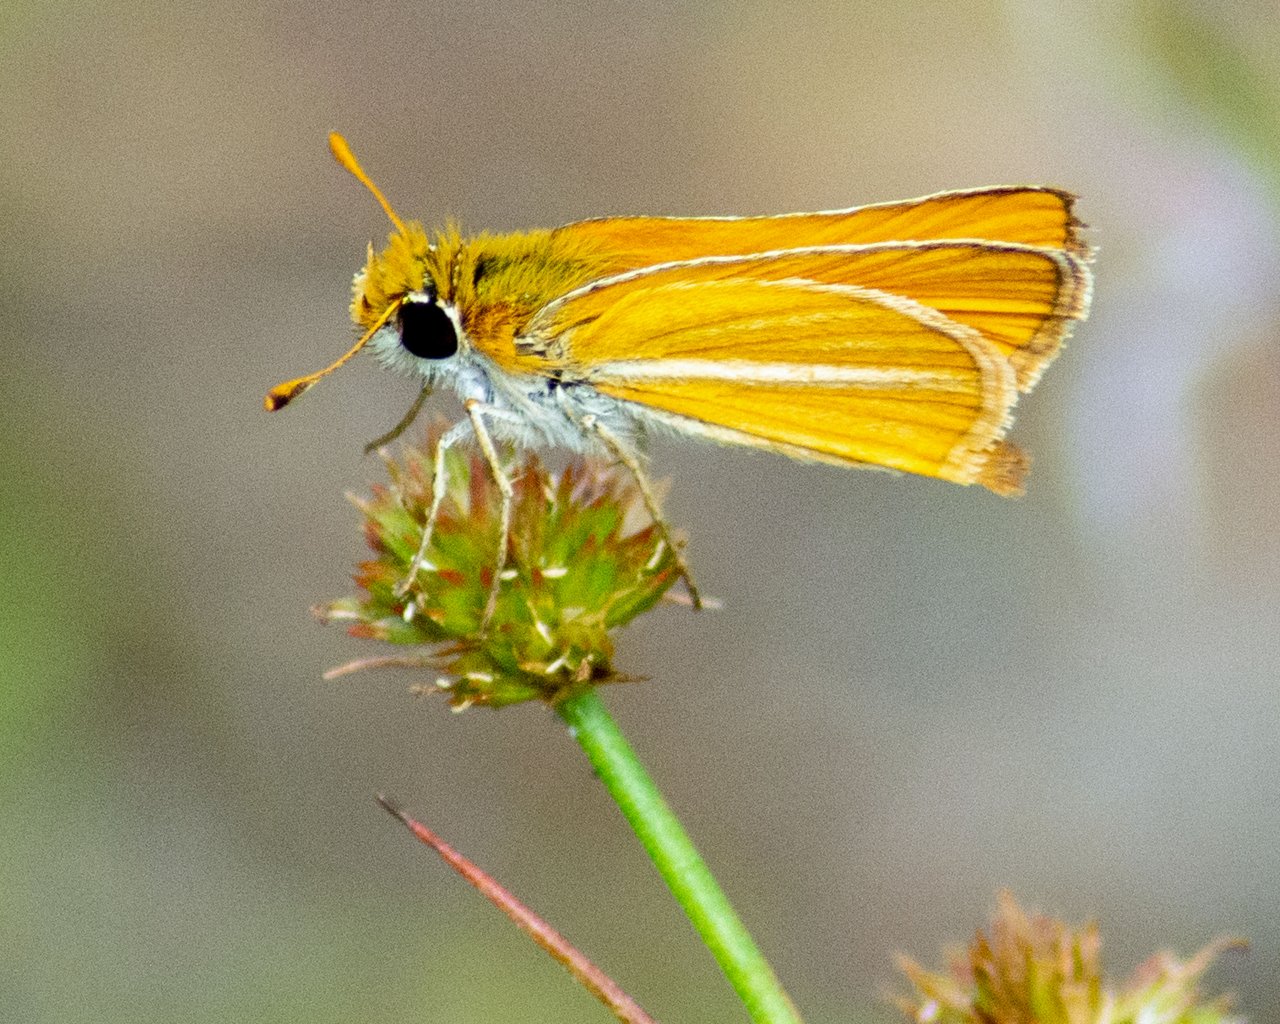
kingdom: Animalia
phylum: Arthropoda
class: Insecta
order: Lepidoptera
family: Hesperiidae
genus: Copaeodes
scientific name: Copaeodes minima
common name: Southern Skipperling
